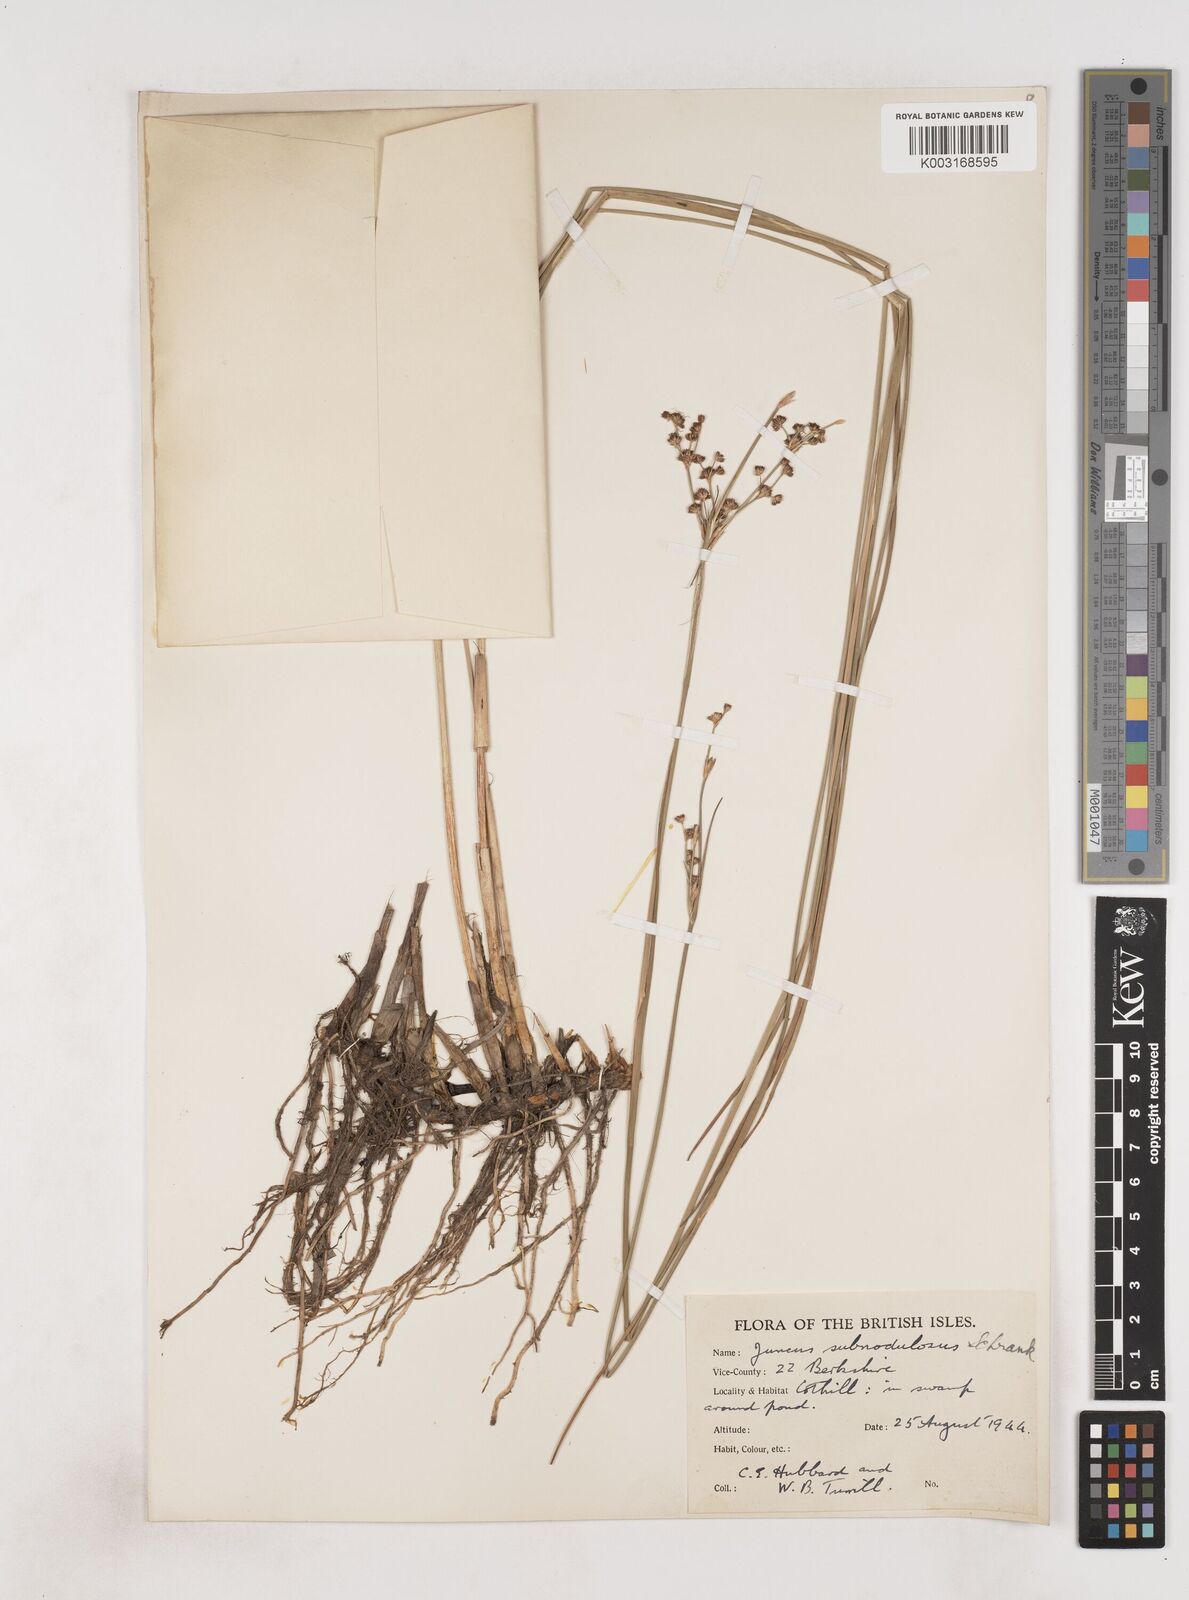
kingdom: Plantae
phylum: Tracheophyta
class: Liliopsida
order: Poales
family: Juncaceae
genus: Juncus
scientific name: Juncus subnodulosus
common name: Blunt-flowered rush
